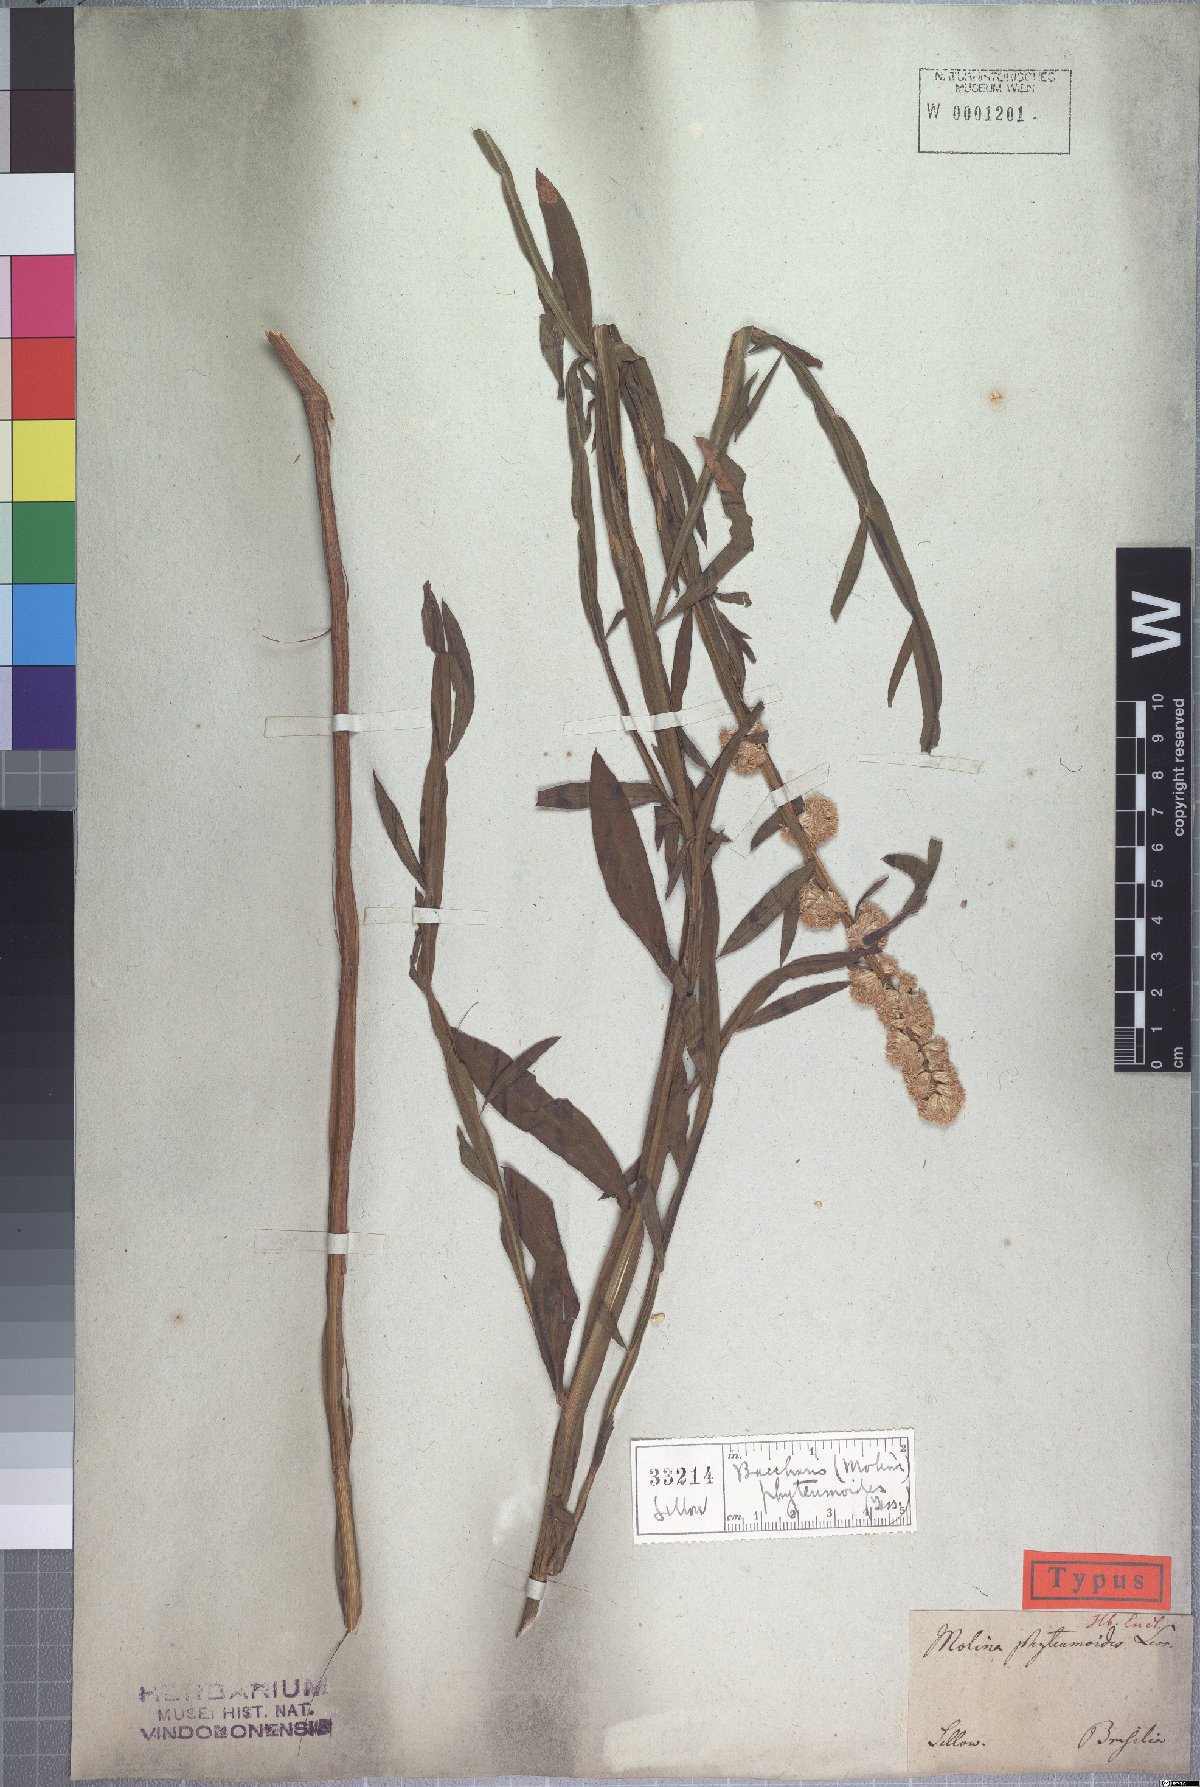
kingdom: Plantae
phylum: Tracheophyta
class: Magnoliopsida
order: Asterales
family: Asteraceae
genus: Baccharis
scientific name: Baccharis phyteumoides
